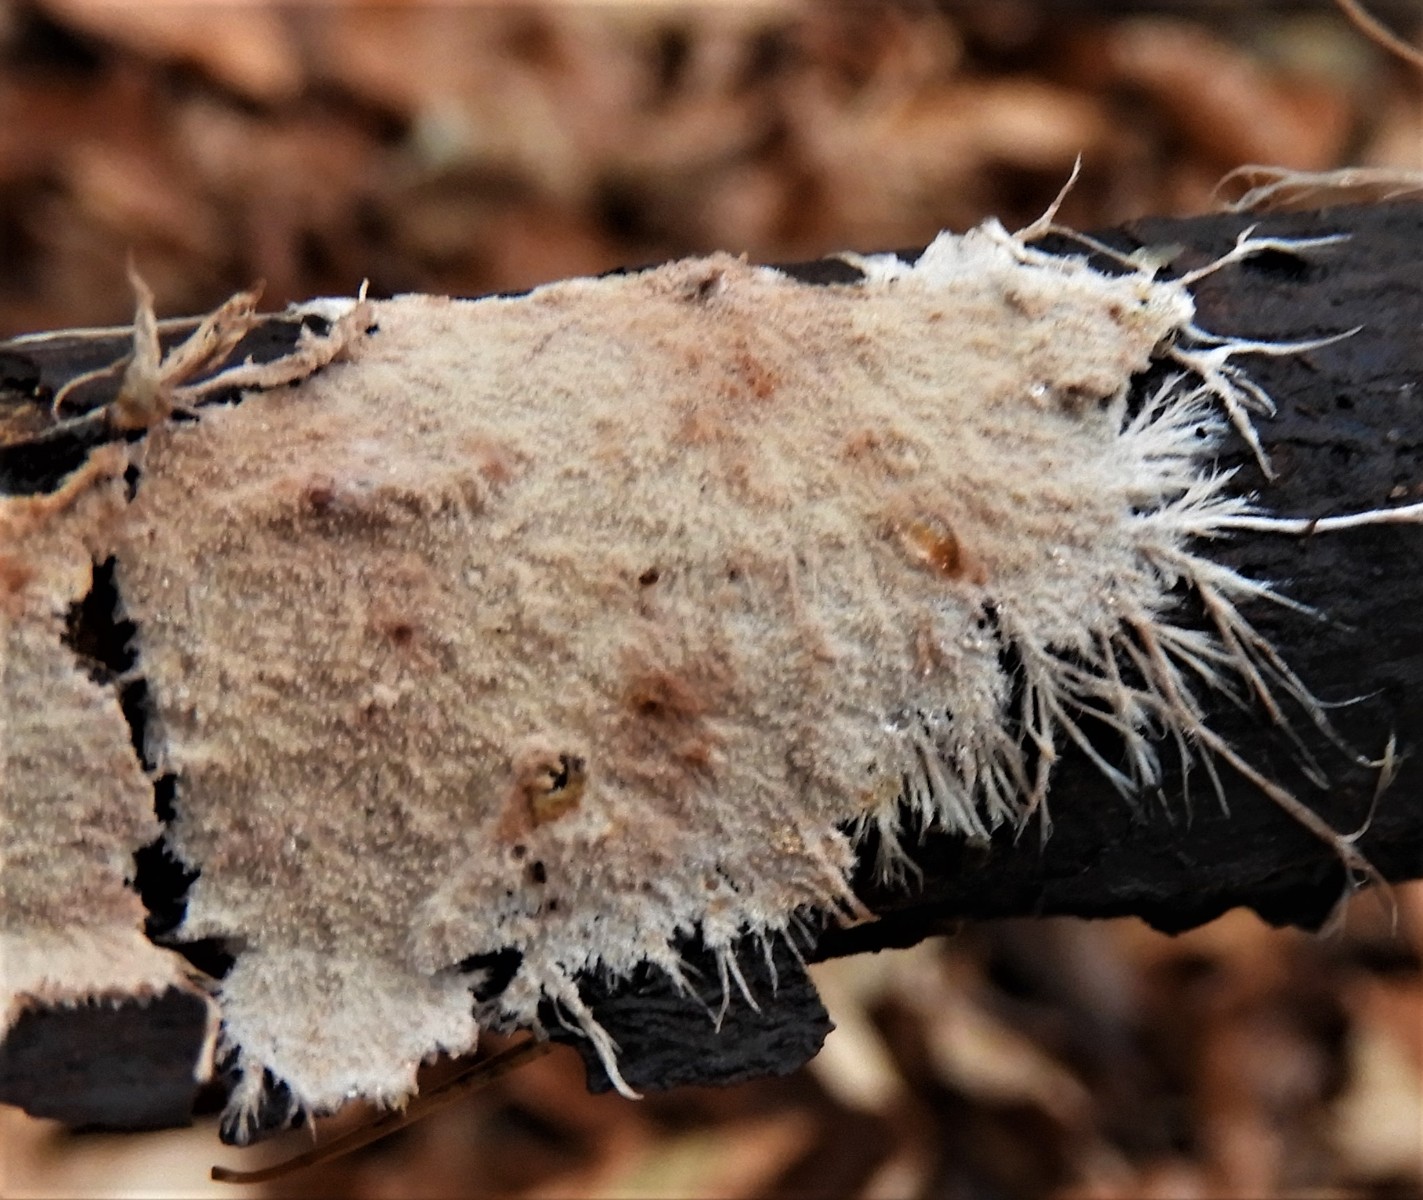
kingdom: Fungi
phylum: Basidiomycota
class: Agaricomycetes
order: Polyporales
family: Steccherinaceae
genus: Steccherinum
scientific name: Steccherinum fimbriatum
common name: trådet skønpig
